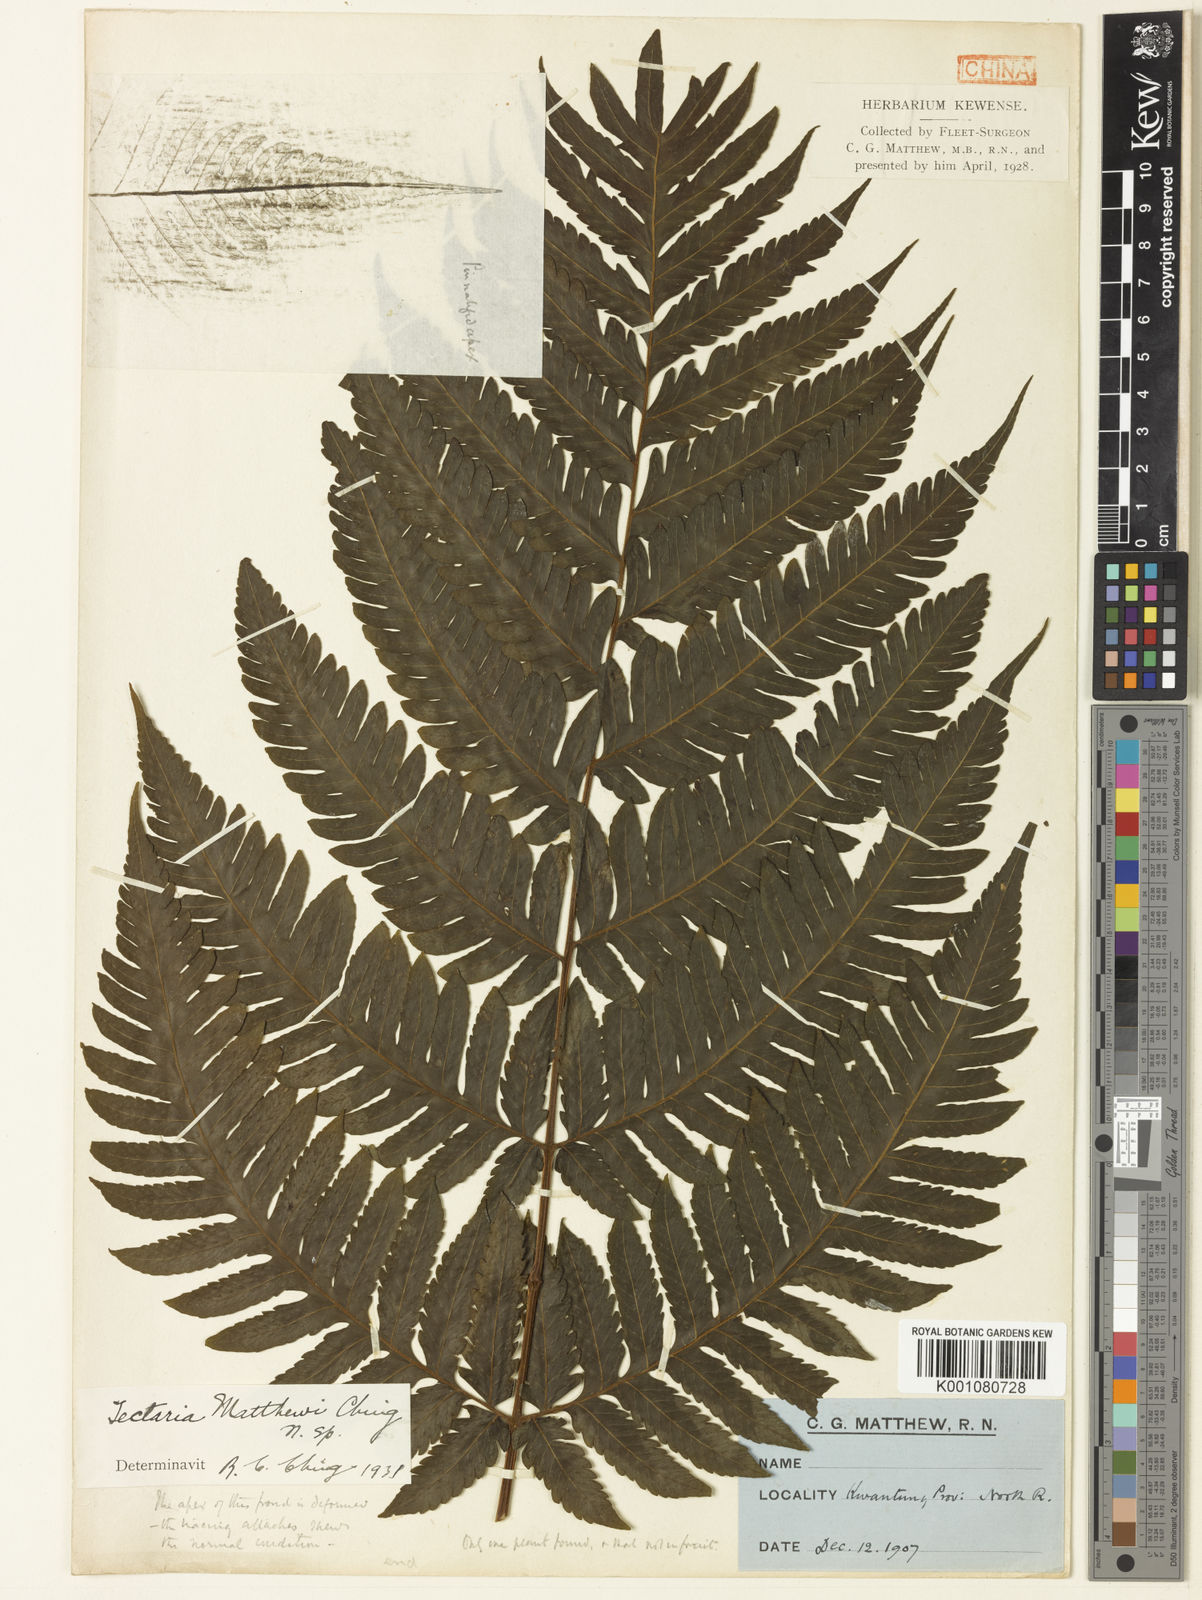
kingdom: Plantae
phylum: Tracheophyta
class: Polypodiopsida
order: Polypodiales
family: Tectariaceae
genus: Tectaria
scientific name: Tectaria ingens
